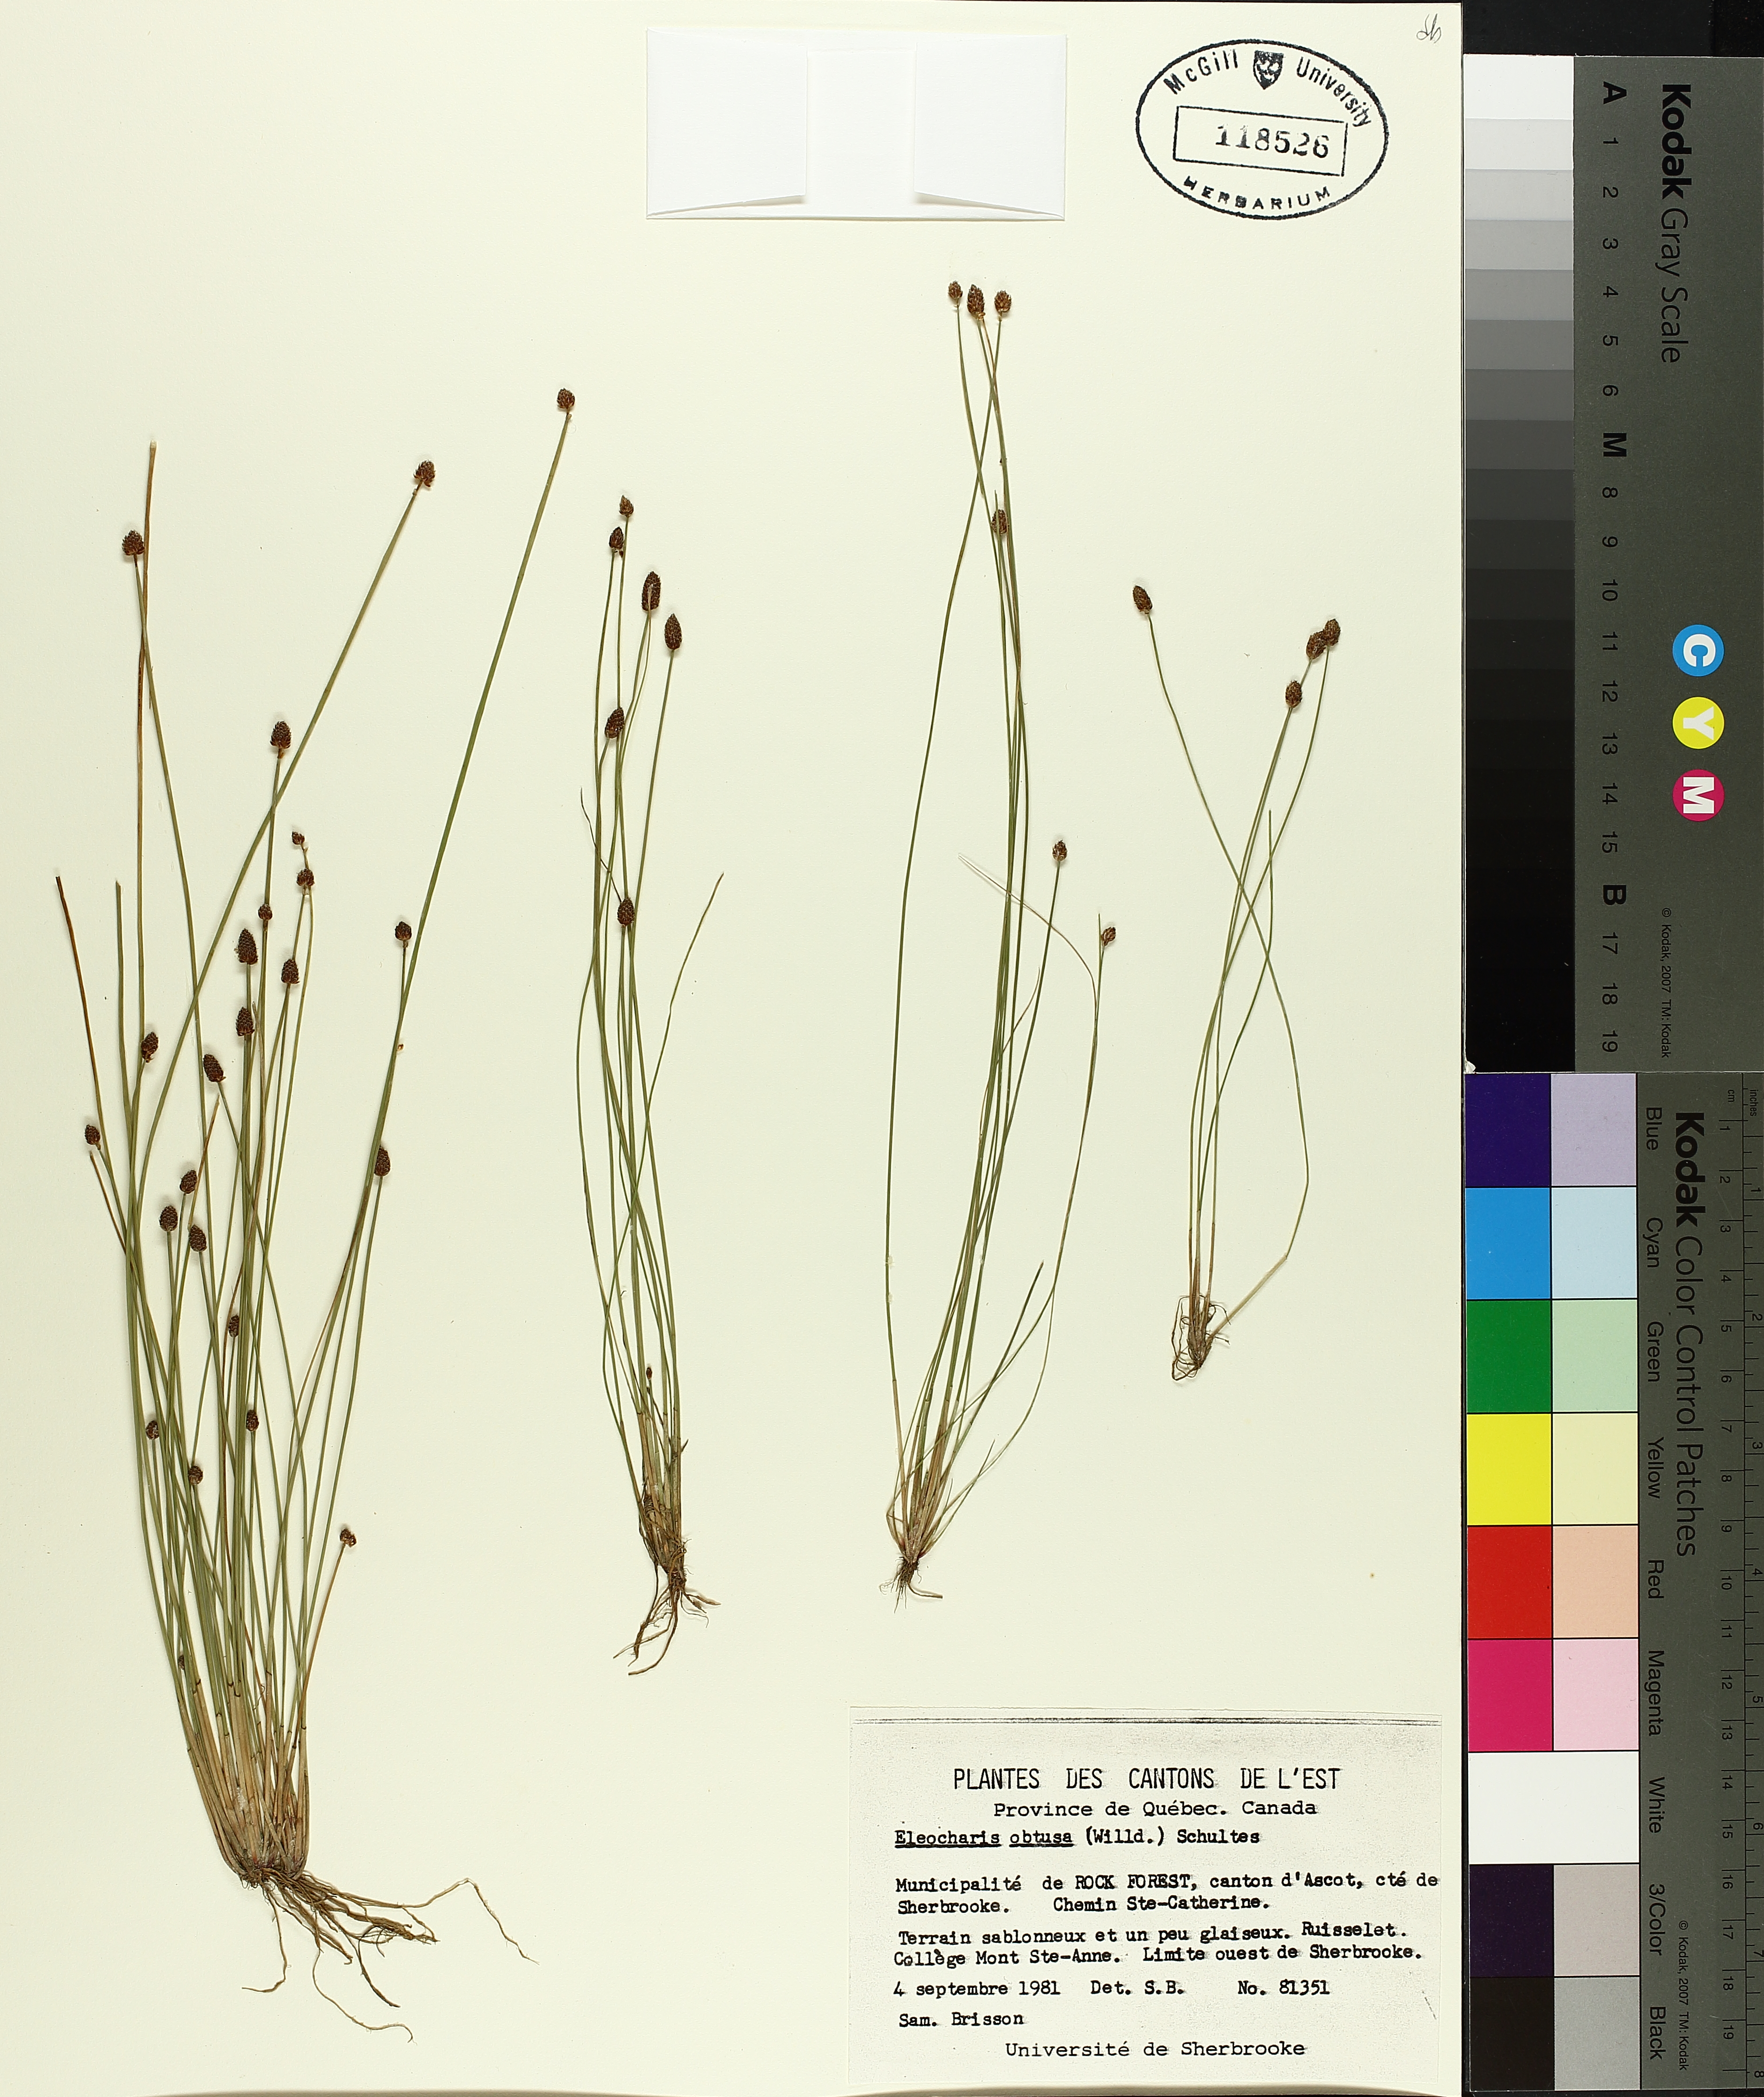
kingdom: Plantae
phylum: Tracheophyta
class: Liliopsida
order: Poales
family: Cyperaceae
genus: Eleocharis
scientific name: Eleocharis obtusa
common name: Blunt spikerush
